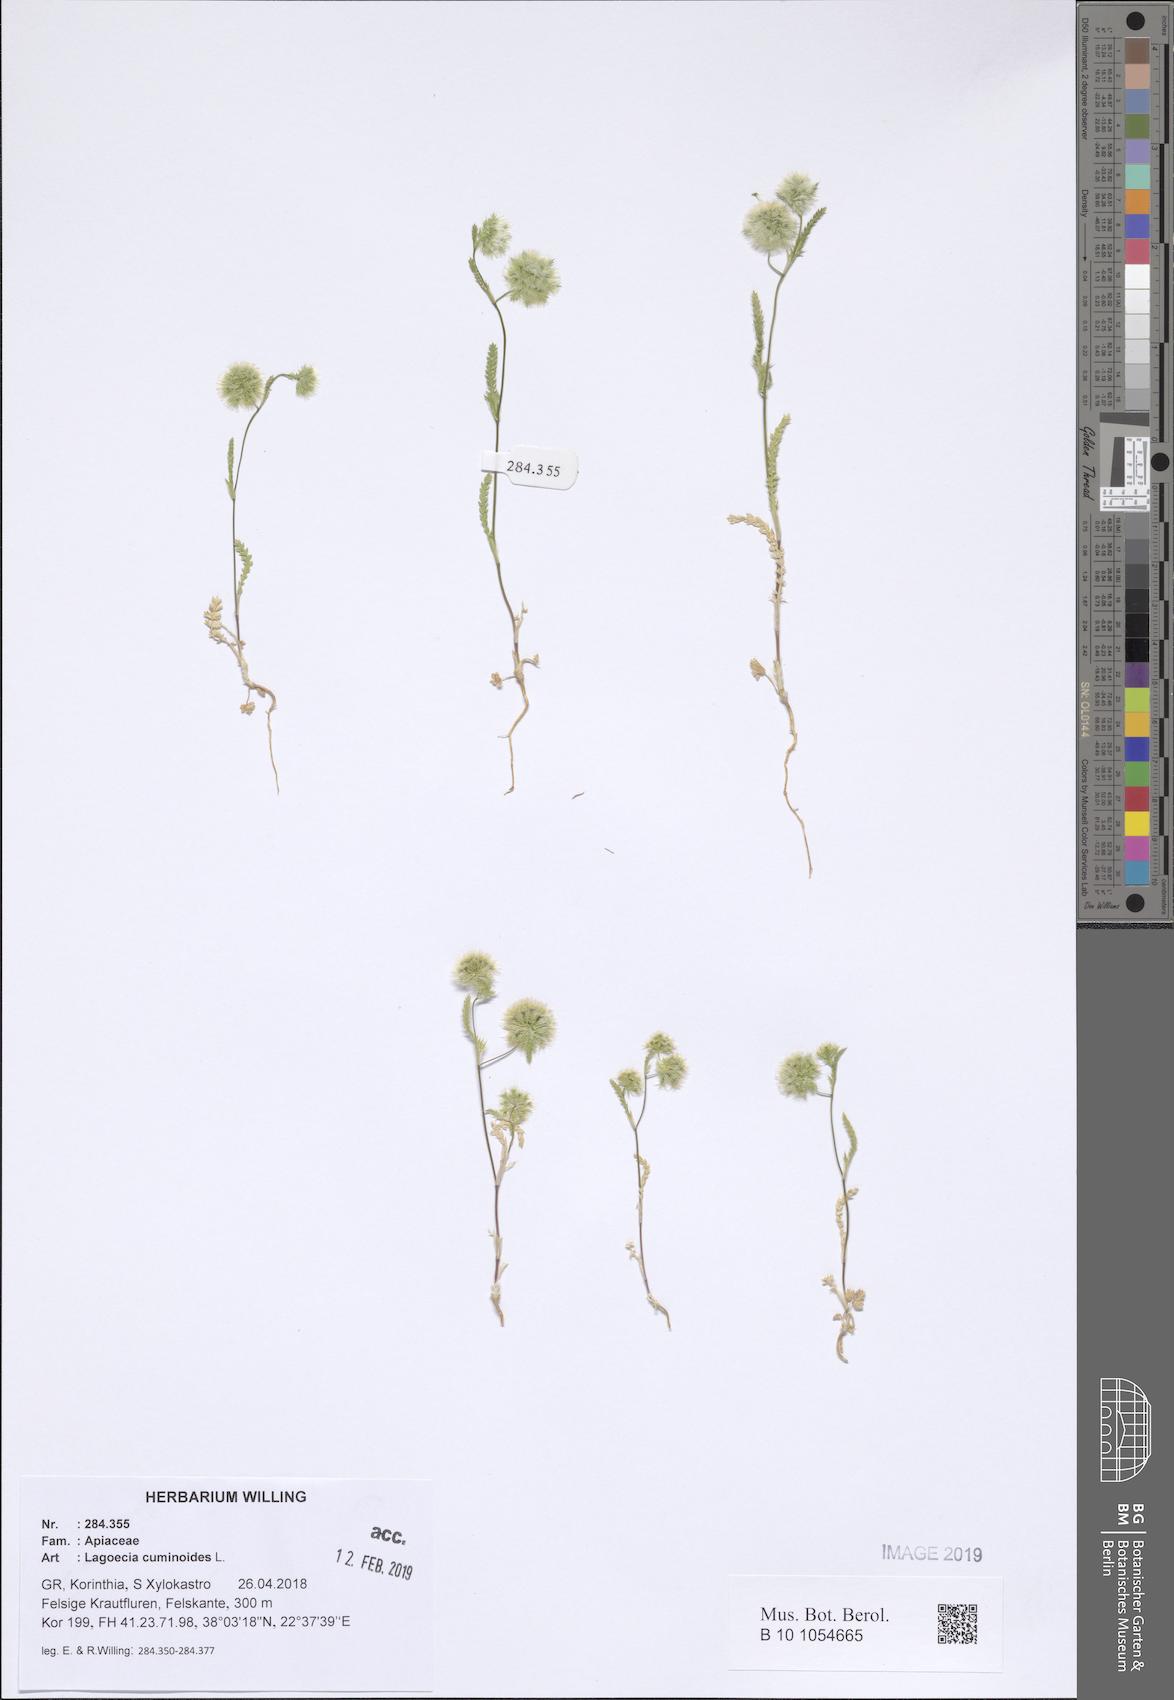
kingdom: Plantae
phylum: Tracheophyta
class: Magnoliopsida
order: Apiales
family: Apiaceae
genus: Lagoecia
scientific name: Lagoecia cuminoides
